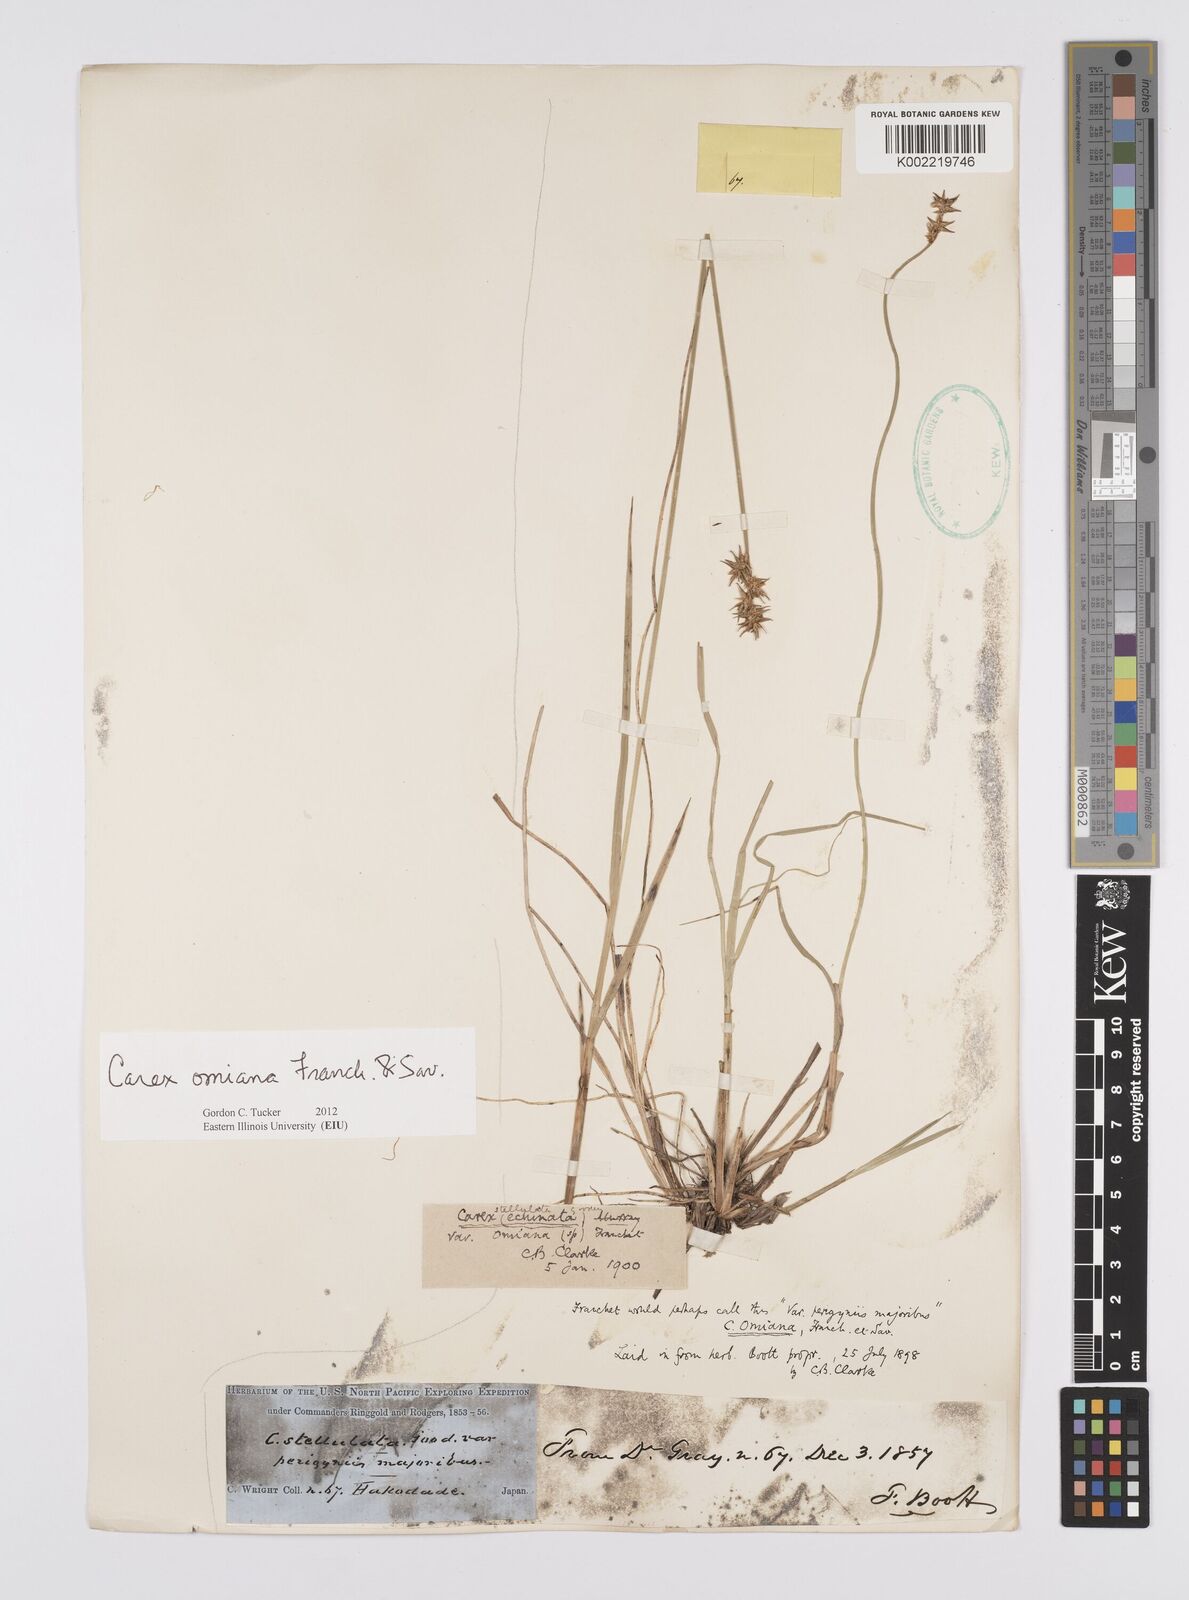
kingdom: Plantae
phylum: Tracheophyta
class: Liliopsida
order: Poales
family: Cyperaceae
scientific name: Cyperaceae
